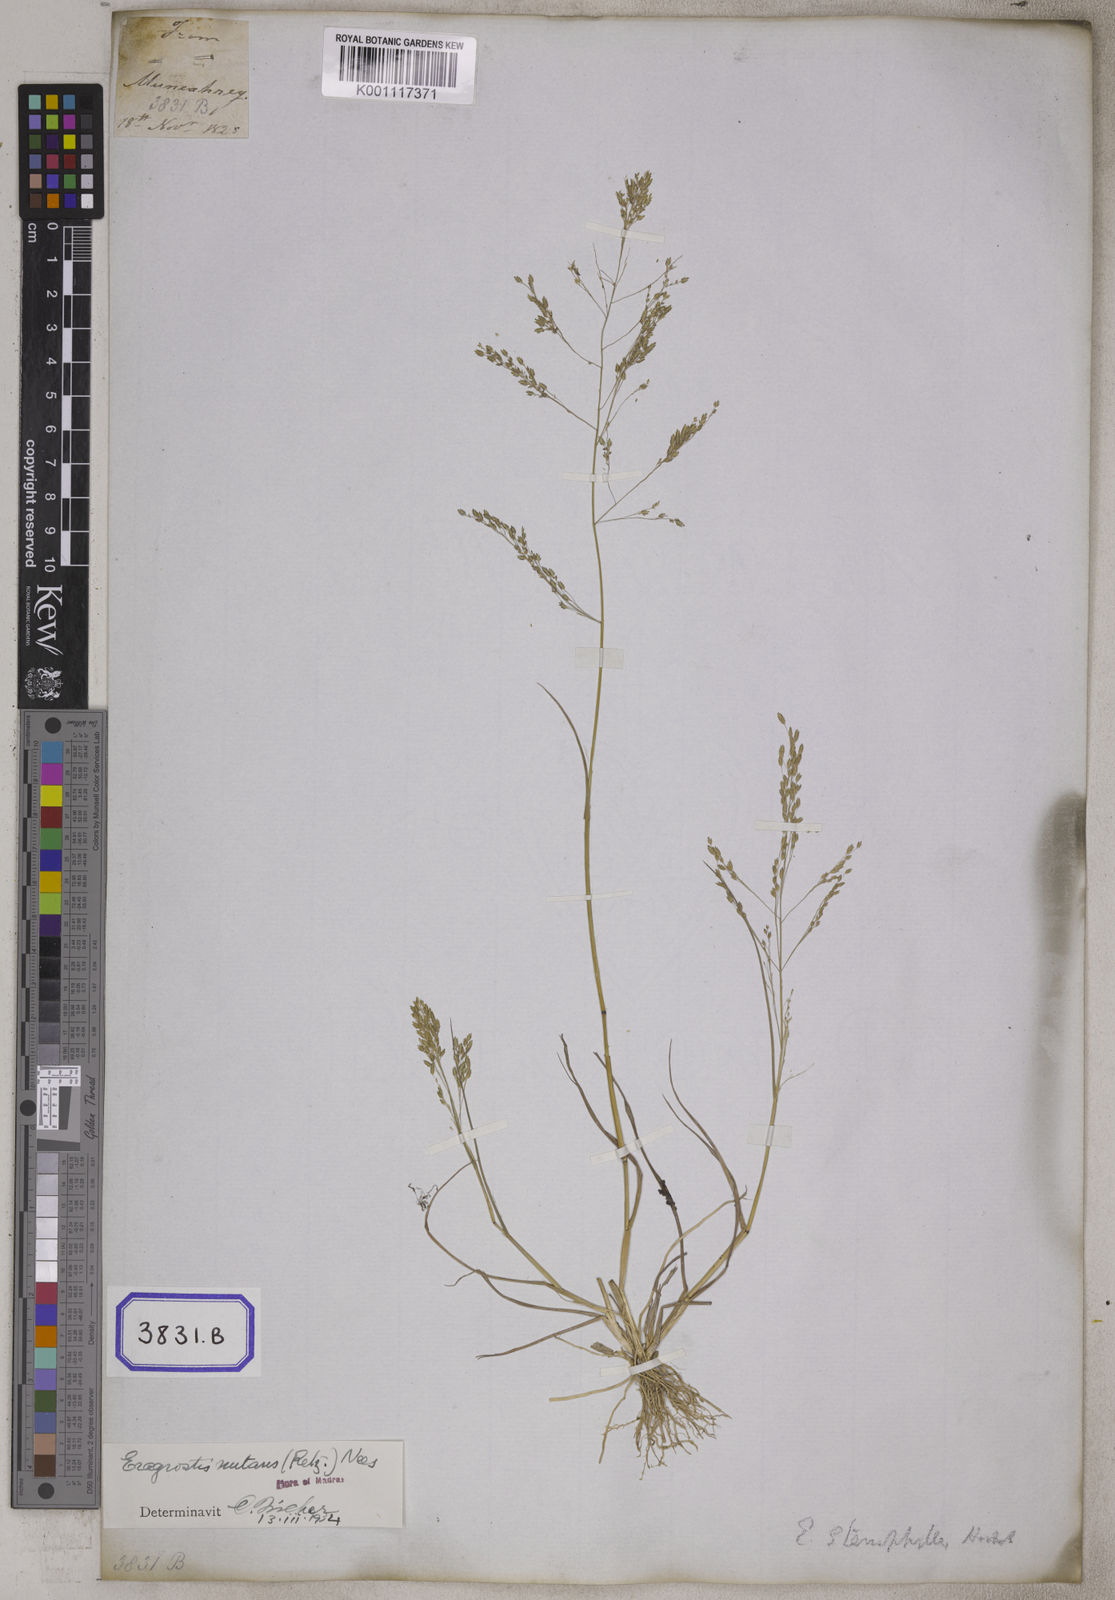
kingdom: Plantae
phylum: Tracheophyta
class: Liliopsida
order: Poales
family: Poaceae
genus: Eragrostis
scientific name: Eragrostis
